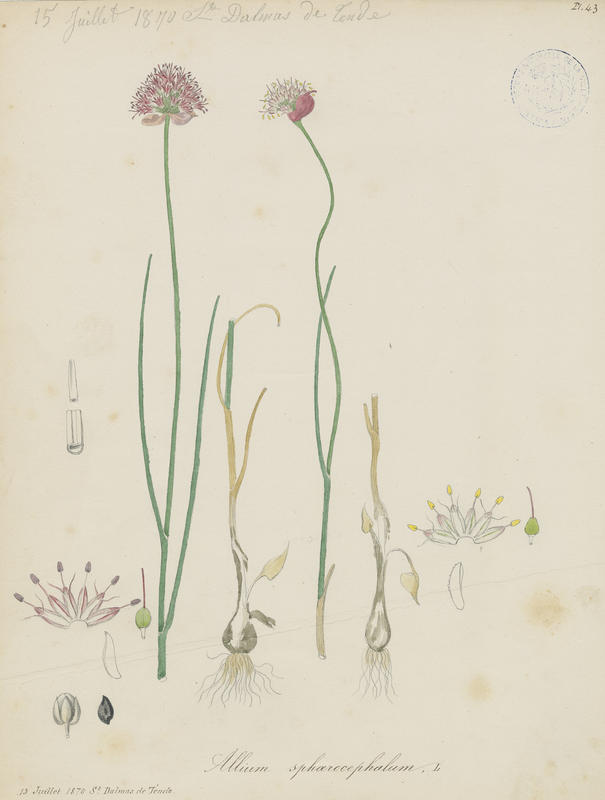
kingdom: Plantae
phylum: Tracheophyta
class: Liliopsida
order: Asparagales
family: Amaryllidaceae
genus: Allium
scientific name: Allium sphaerocephalon
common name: Round-headed leek
